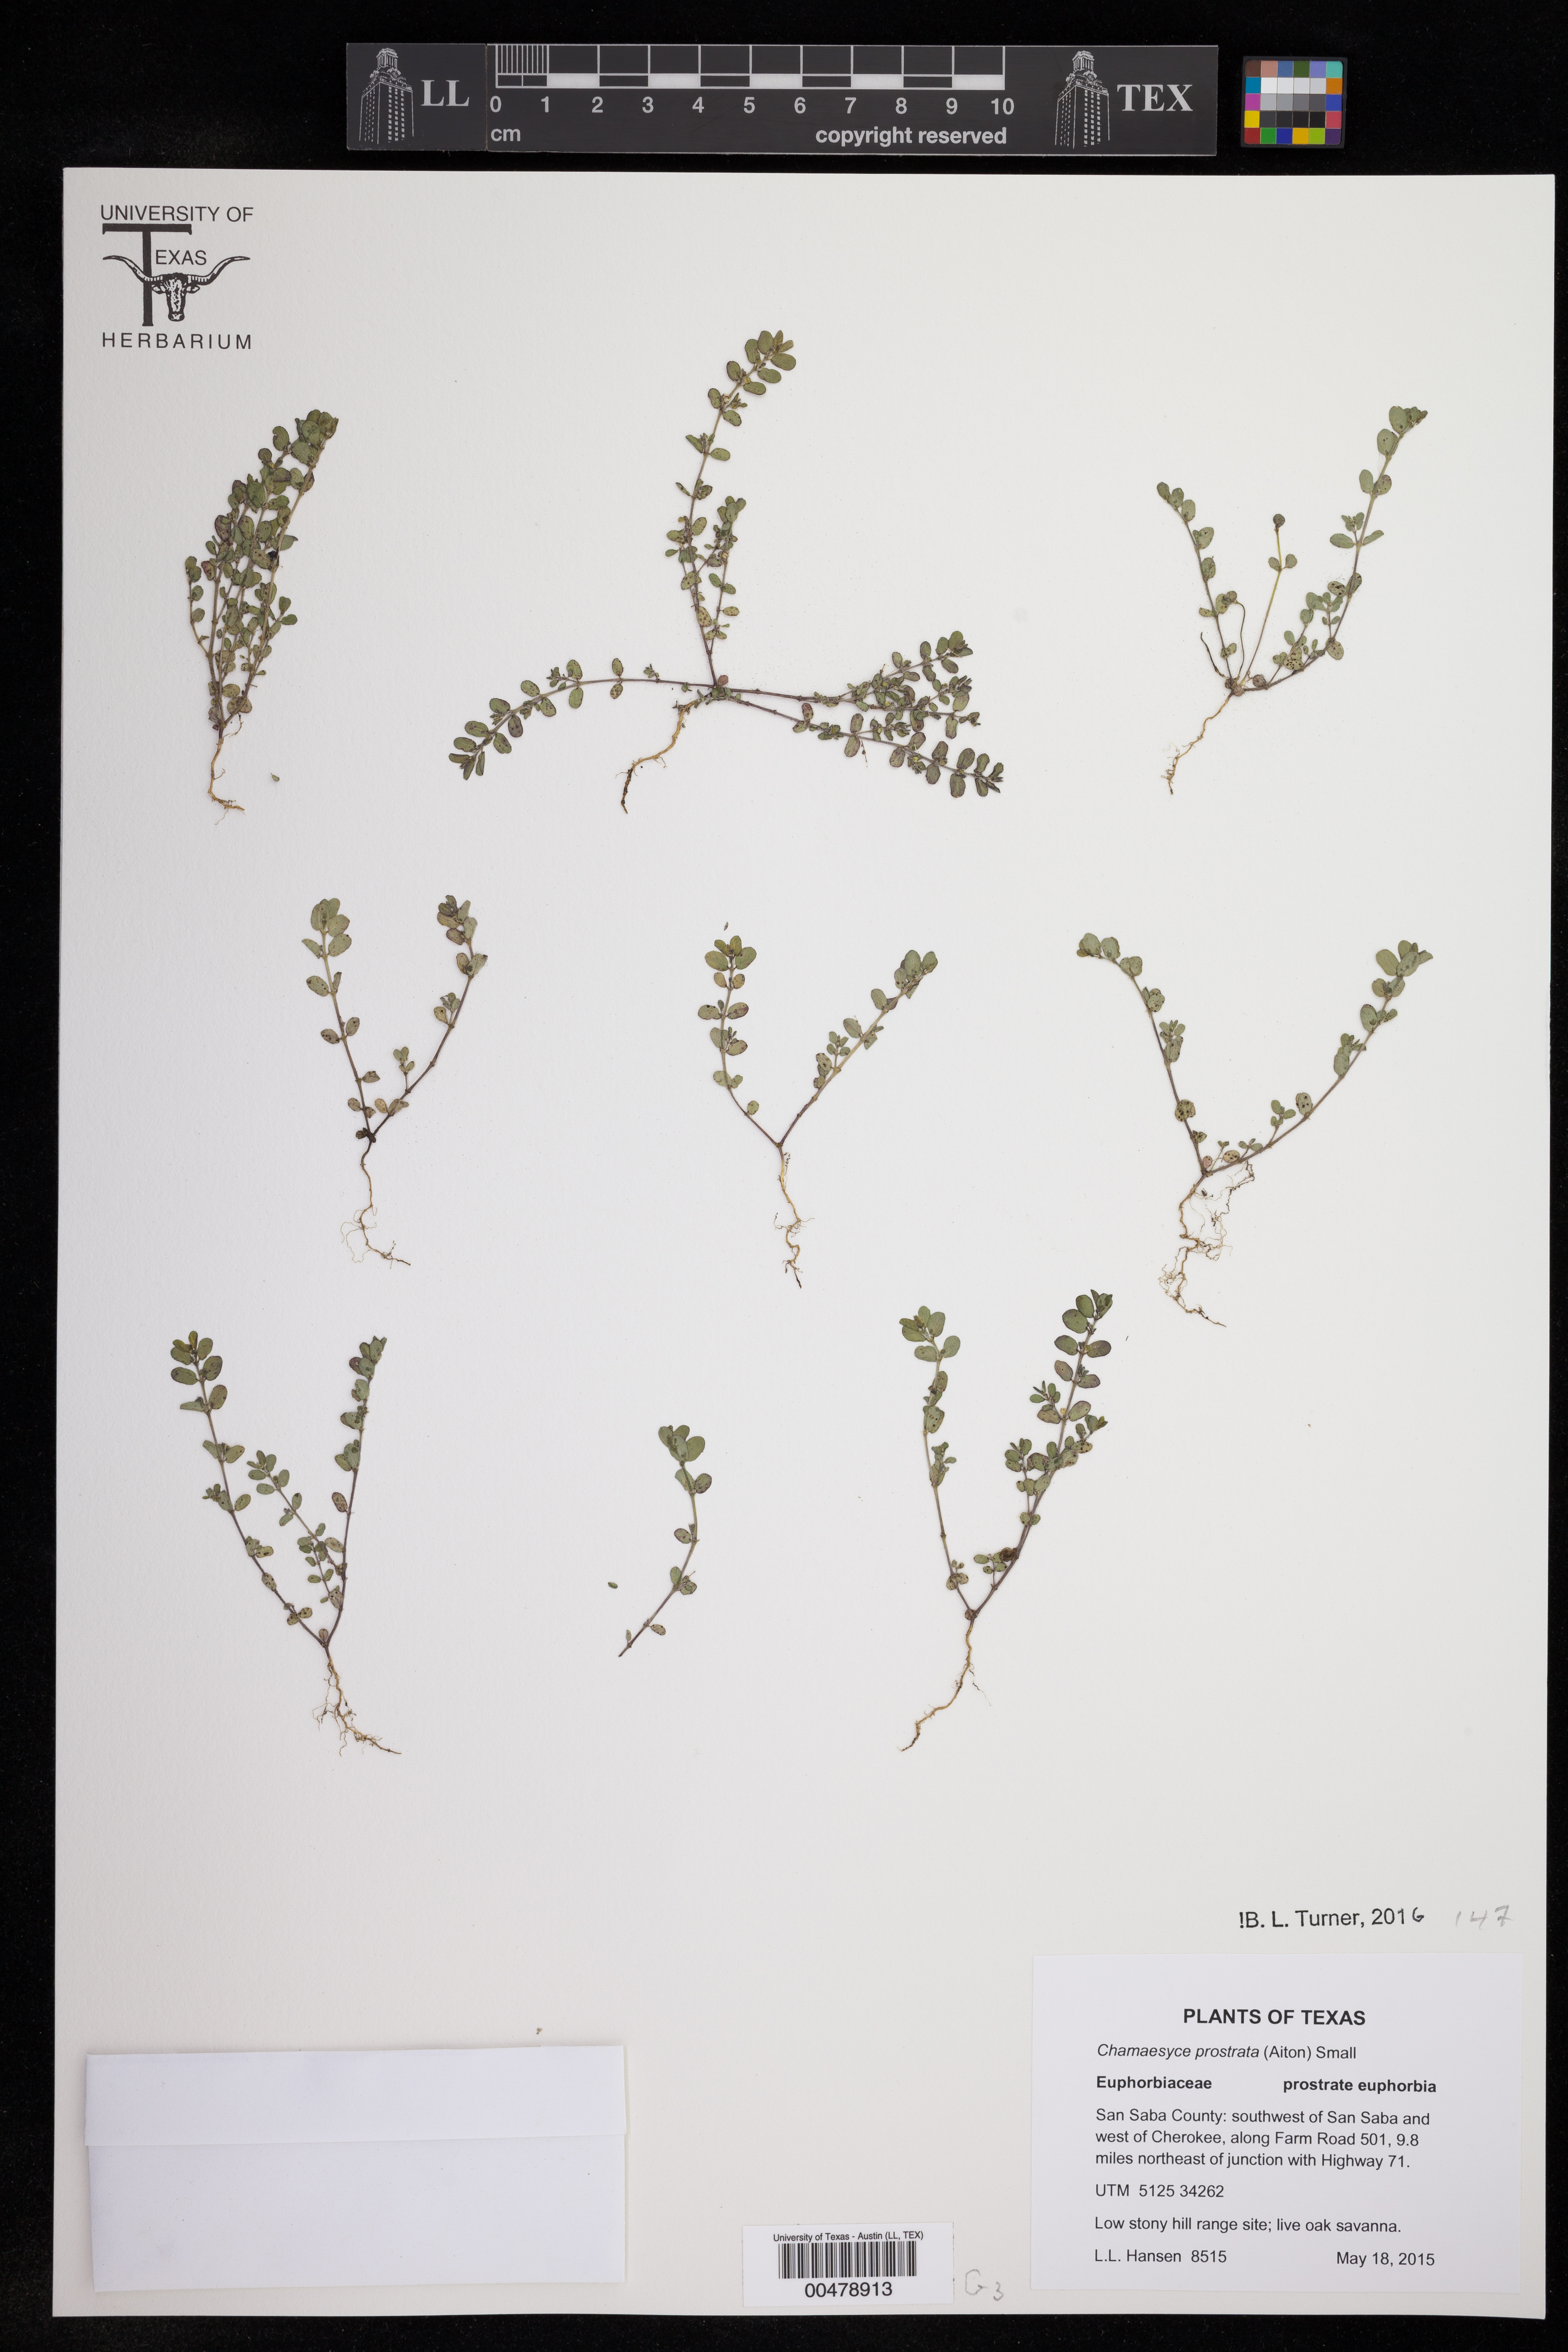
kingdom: Plantae
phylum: Tracheophyta
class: Magnoliopsida
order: Malpighiales
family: Euphorbiaceae
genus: Euphorbia
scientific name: Euphorbia prostrata
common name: Prostrate sandmat
